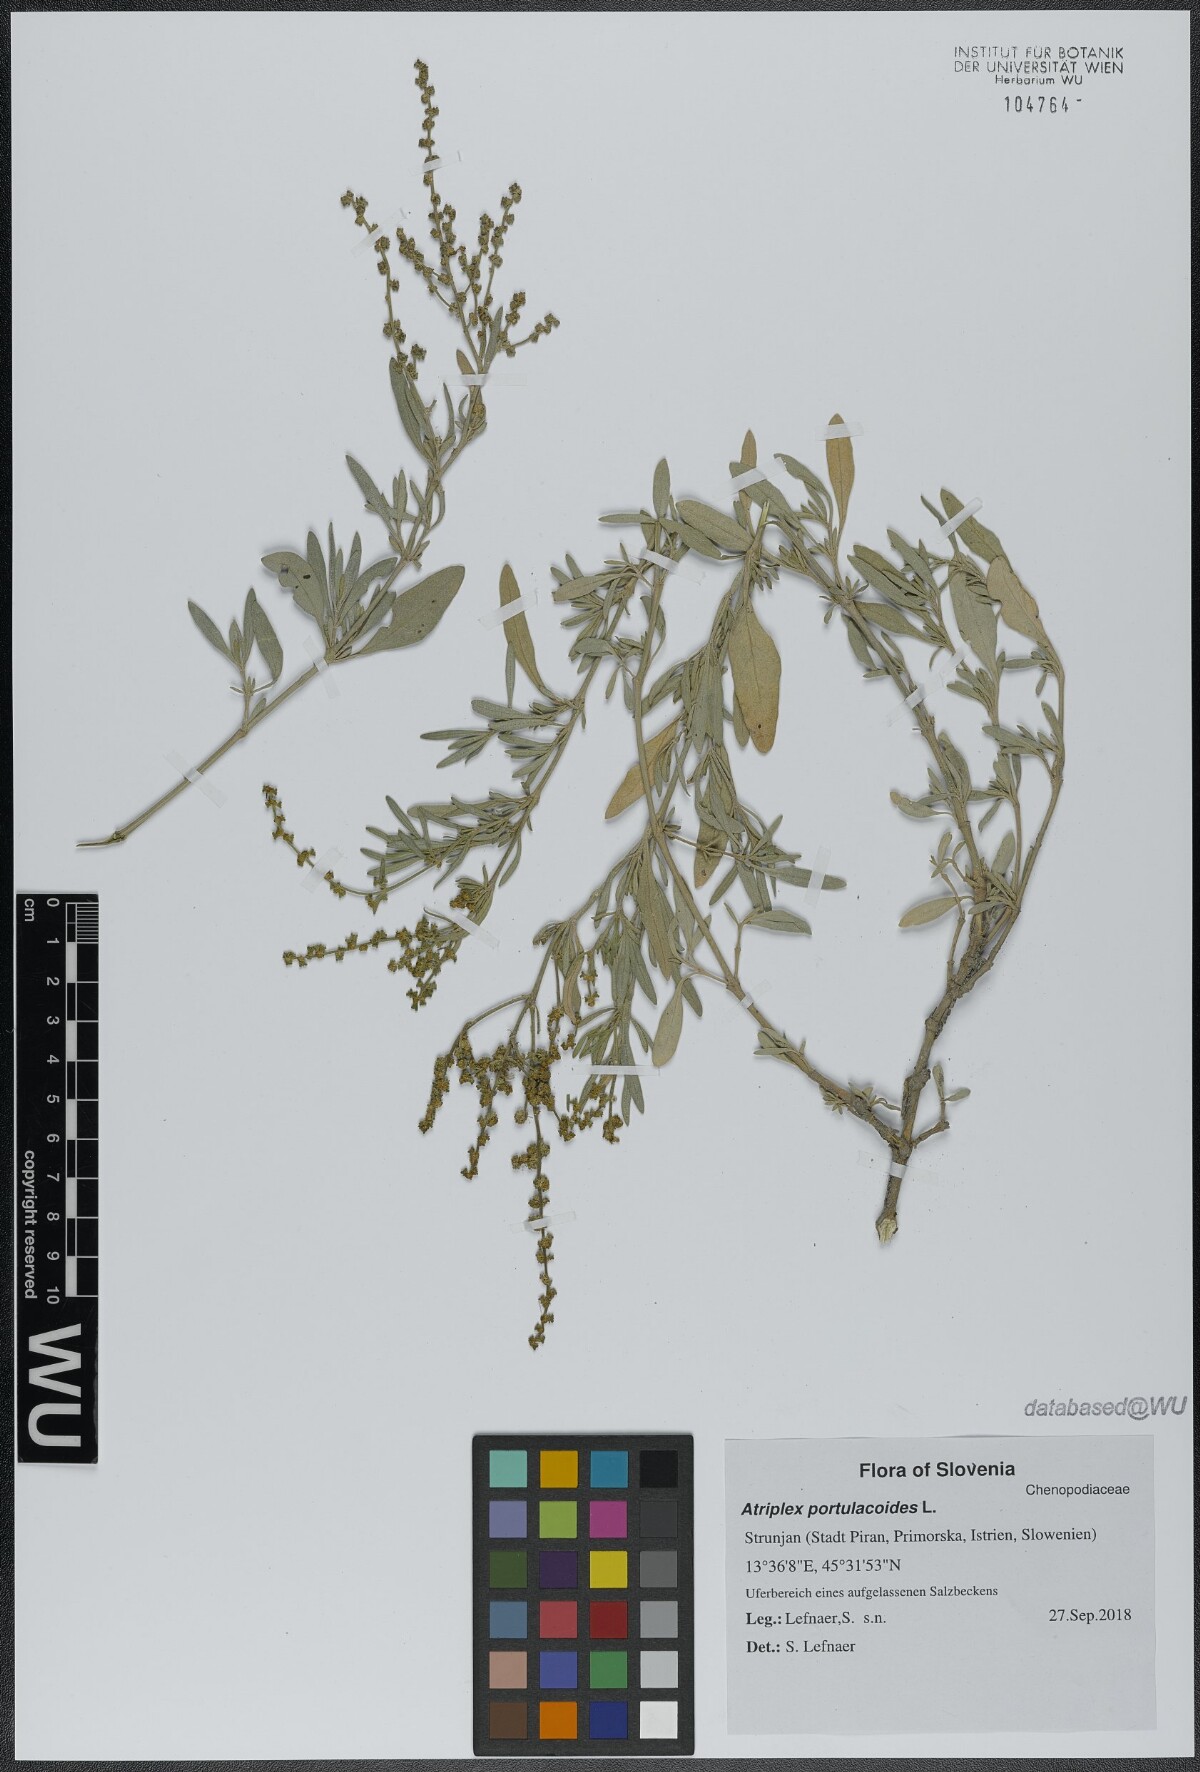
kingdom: Plantae
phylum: Tracheophyta
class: Magnoliopsida
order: Caryophyllales
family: Amaranthaceae
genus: Halimione
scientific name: Halimione portulacoides
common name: Sea-purslane
